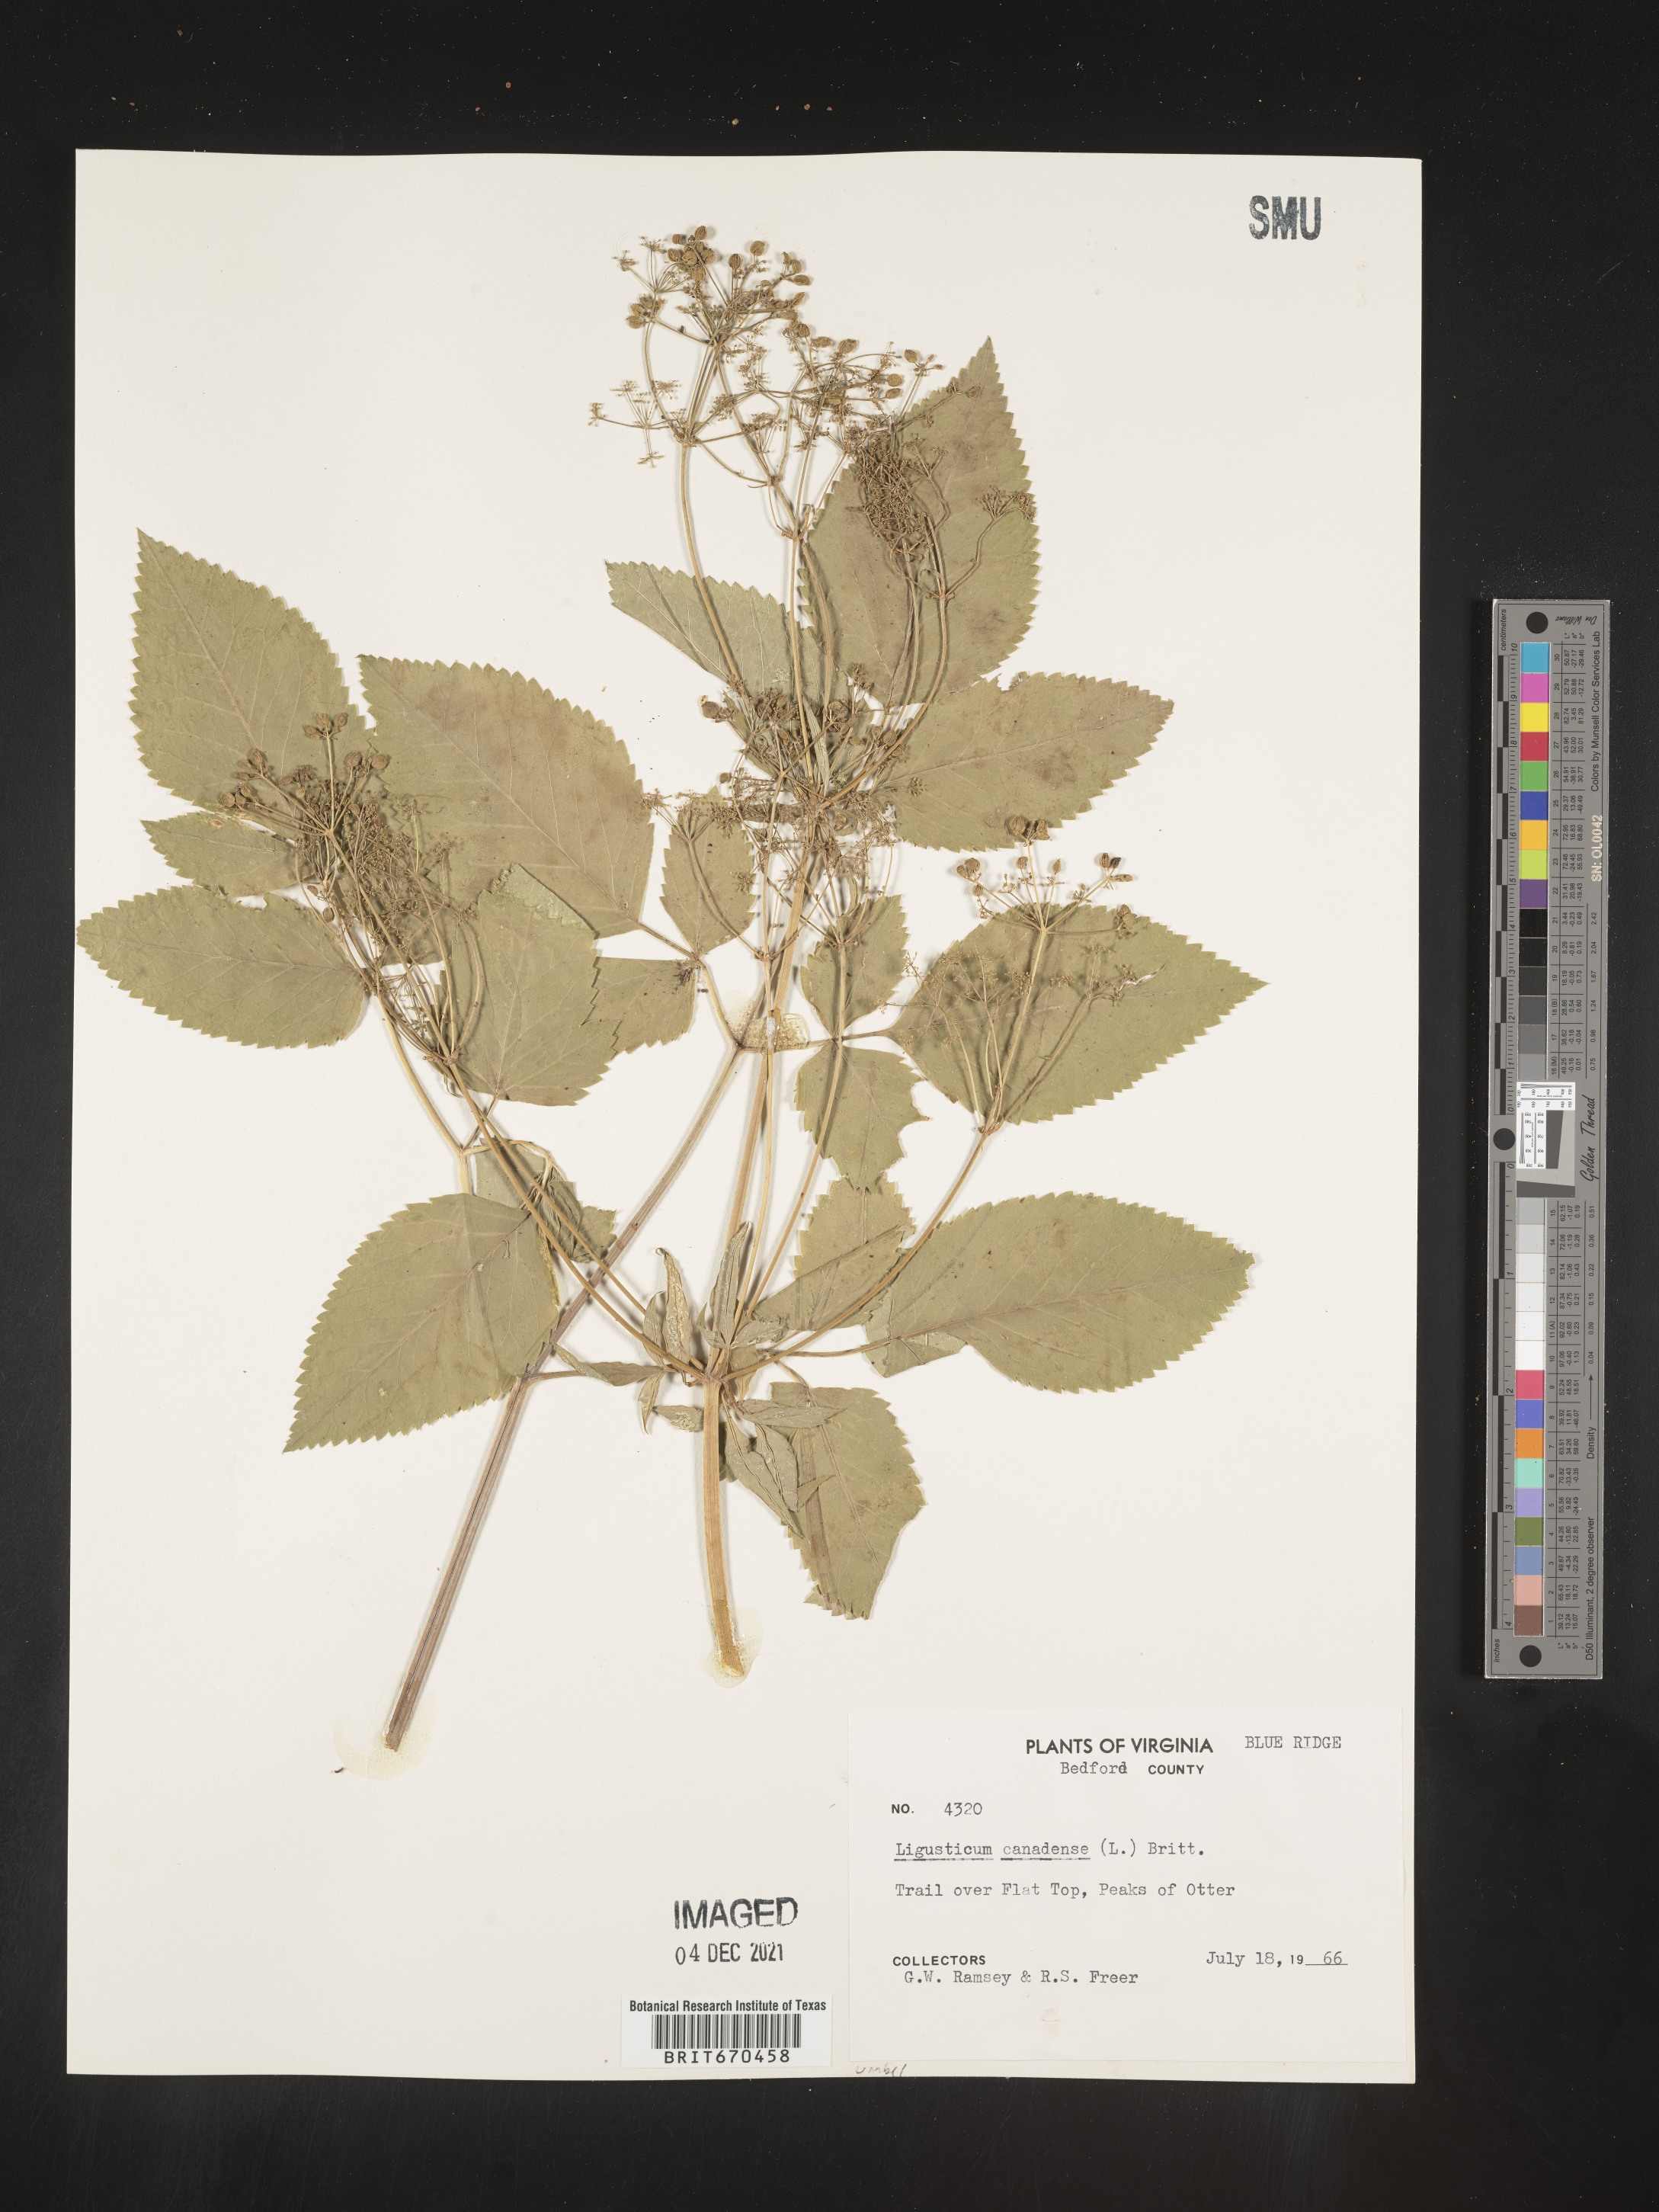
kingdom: Plantae
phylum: Tracheophyta
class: Magnoliopsida
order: Apiales
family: Apiaceae
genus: Ligusticum
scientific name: Ligusticum
